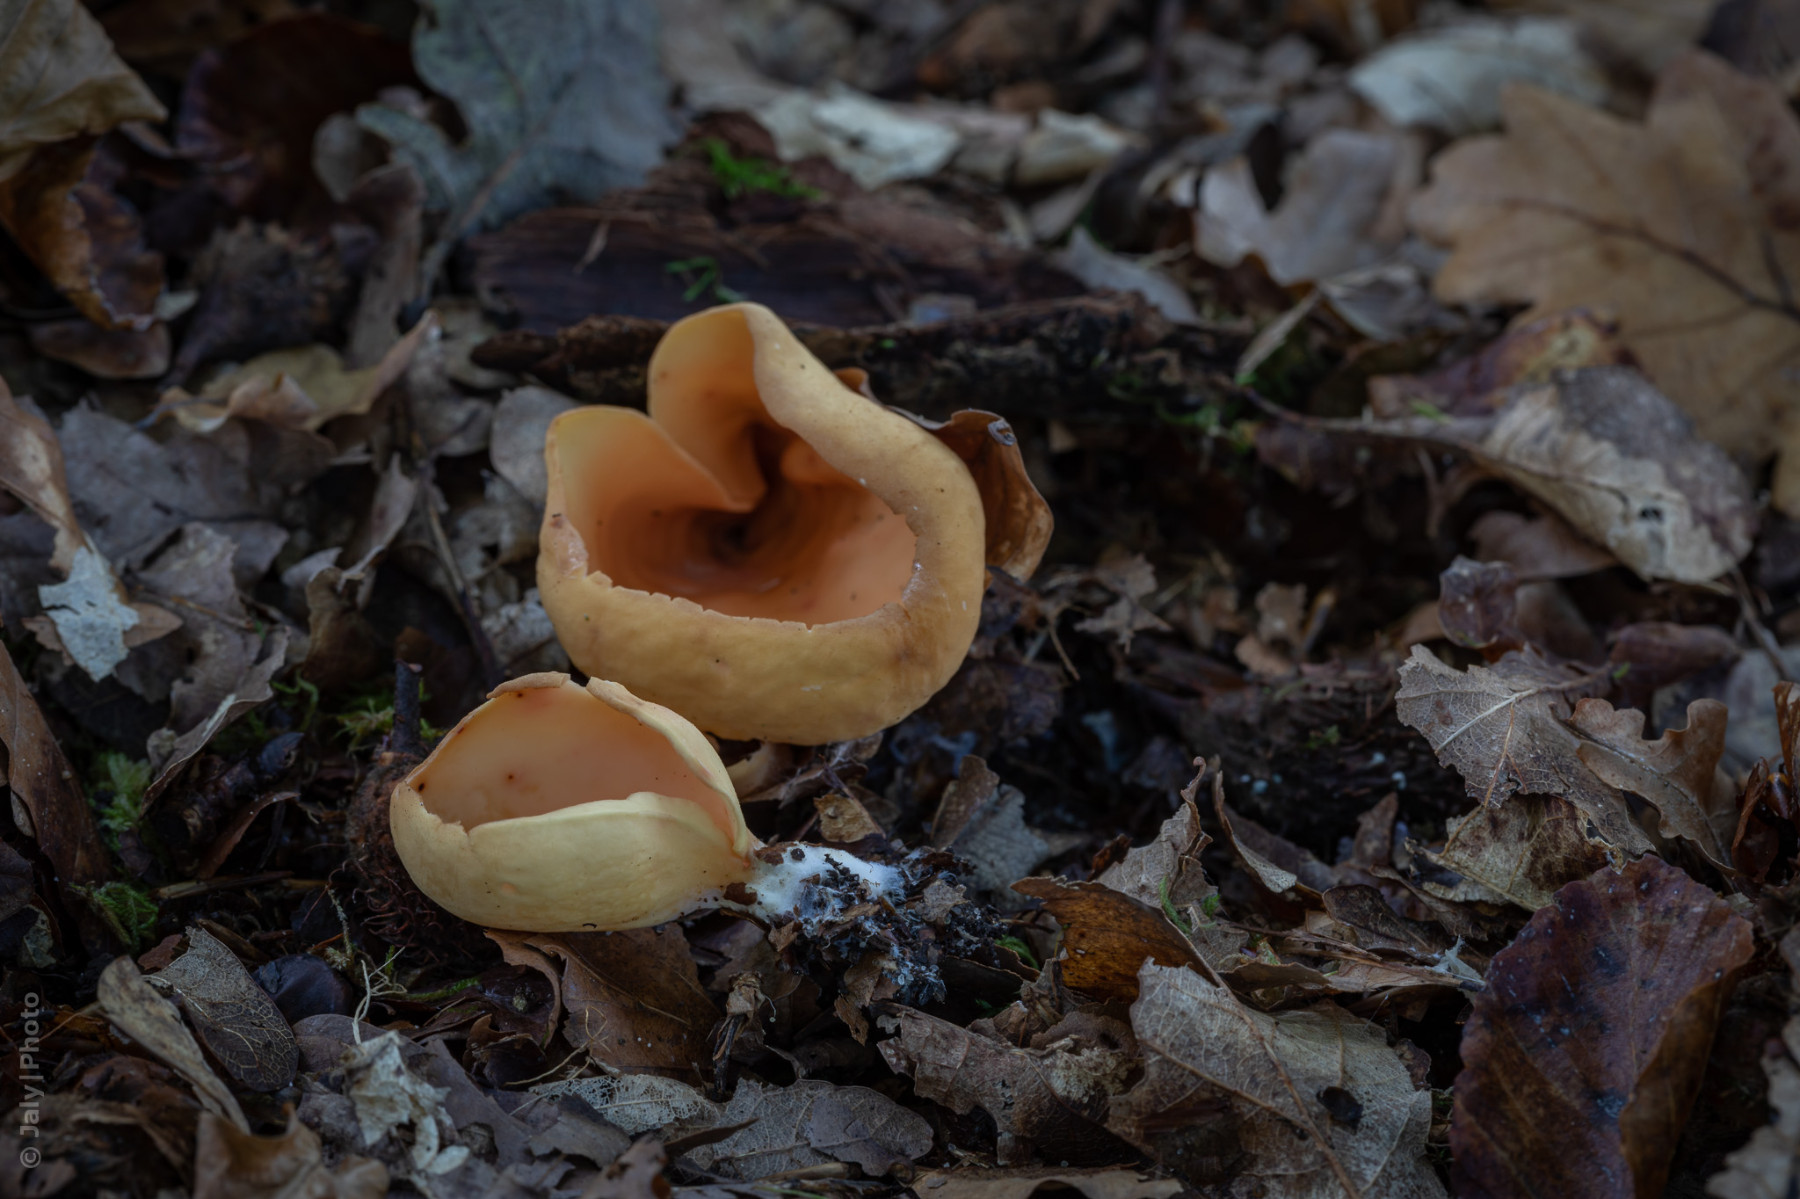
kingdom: Fungi
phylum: Ascomycota
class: Pezizomycetes
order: Pezizales
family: Otideaceae
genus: Otidea
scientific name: Otidea onotica
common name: æsel-ørebæger
